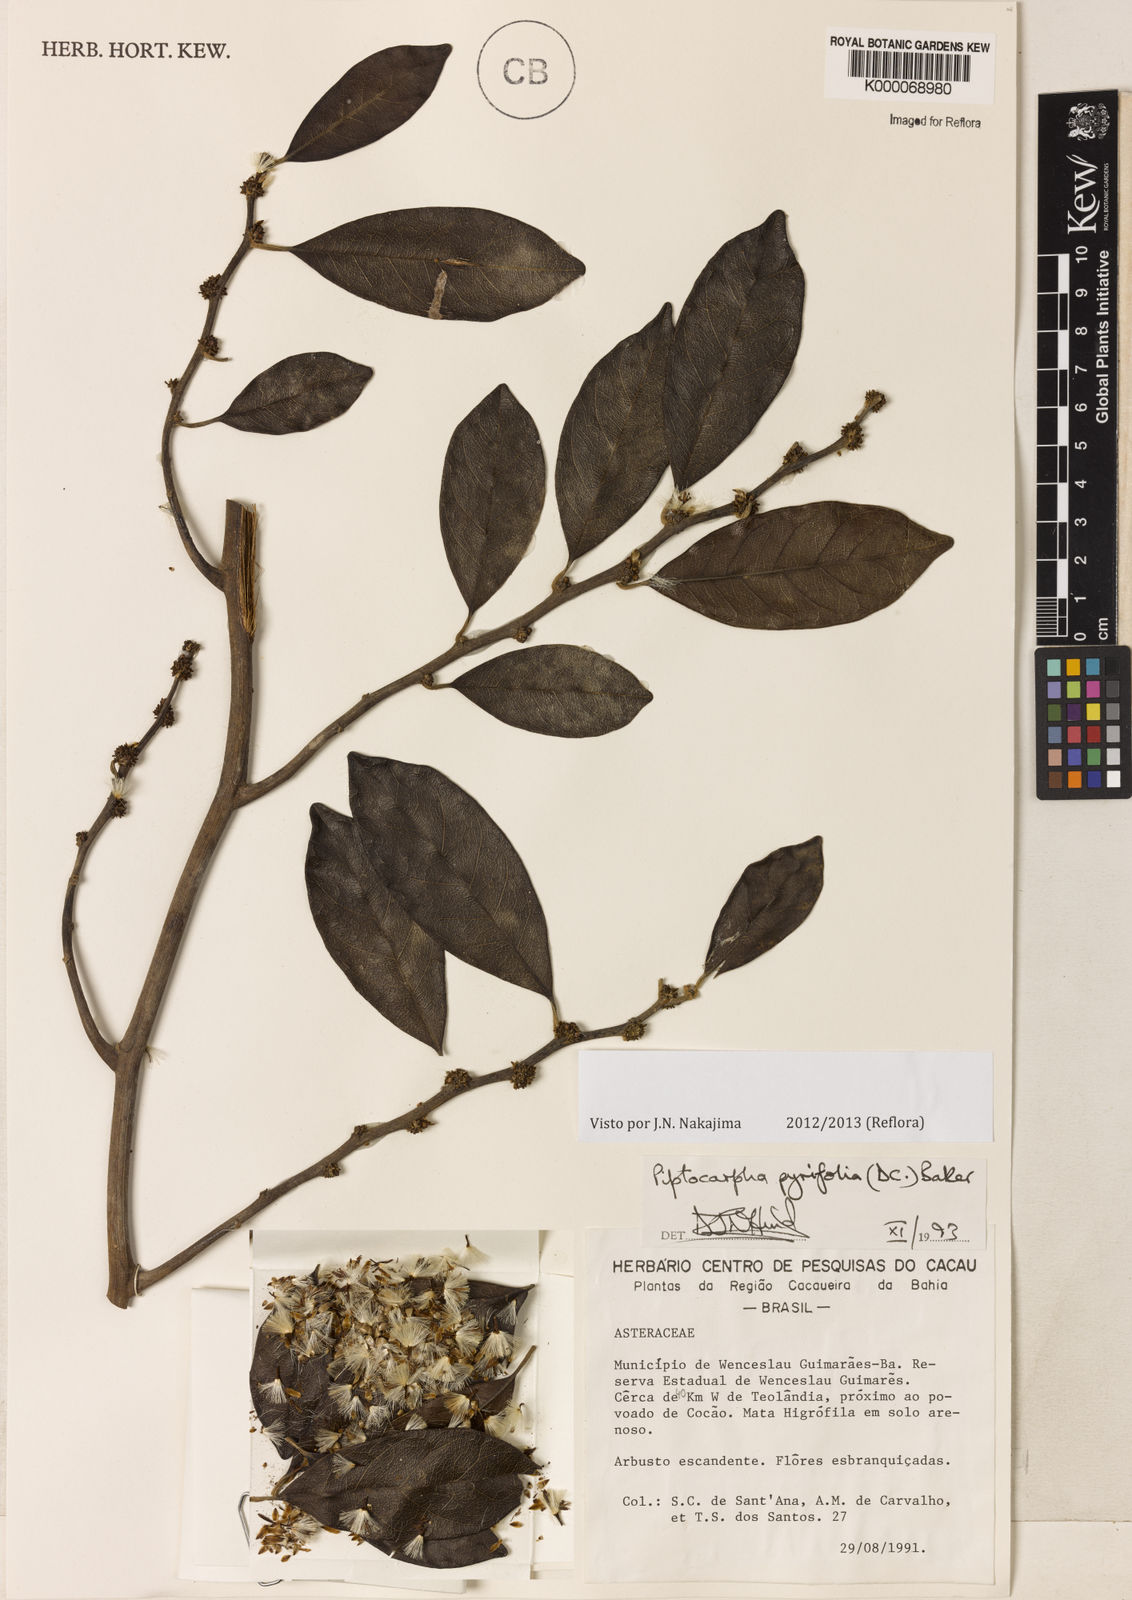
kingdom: Plantae
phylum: Tracheophyta
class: Magnoliopsida
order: Asterales
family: Asteraceae
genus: Piptocarpha
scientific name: Piptocarpha pyrifolia
